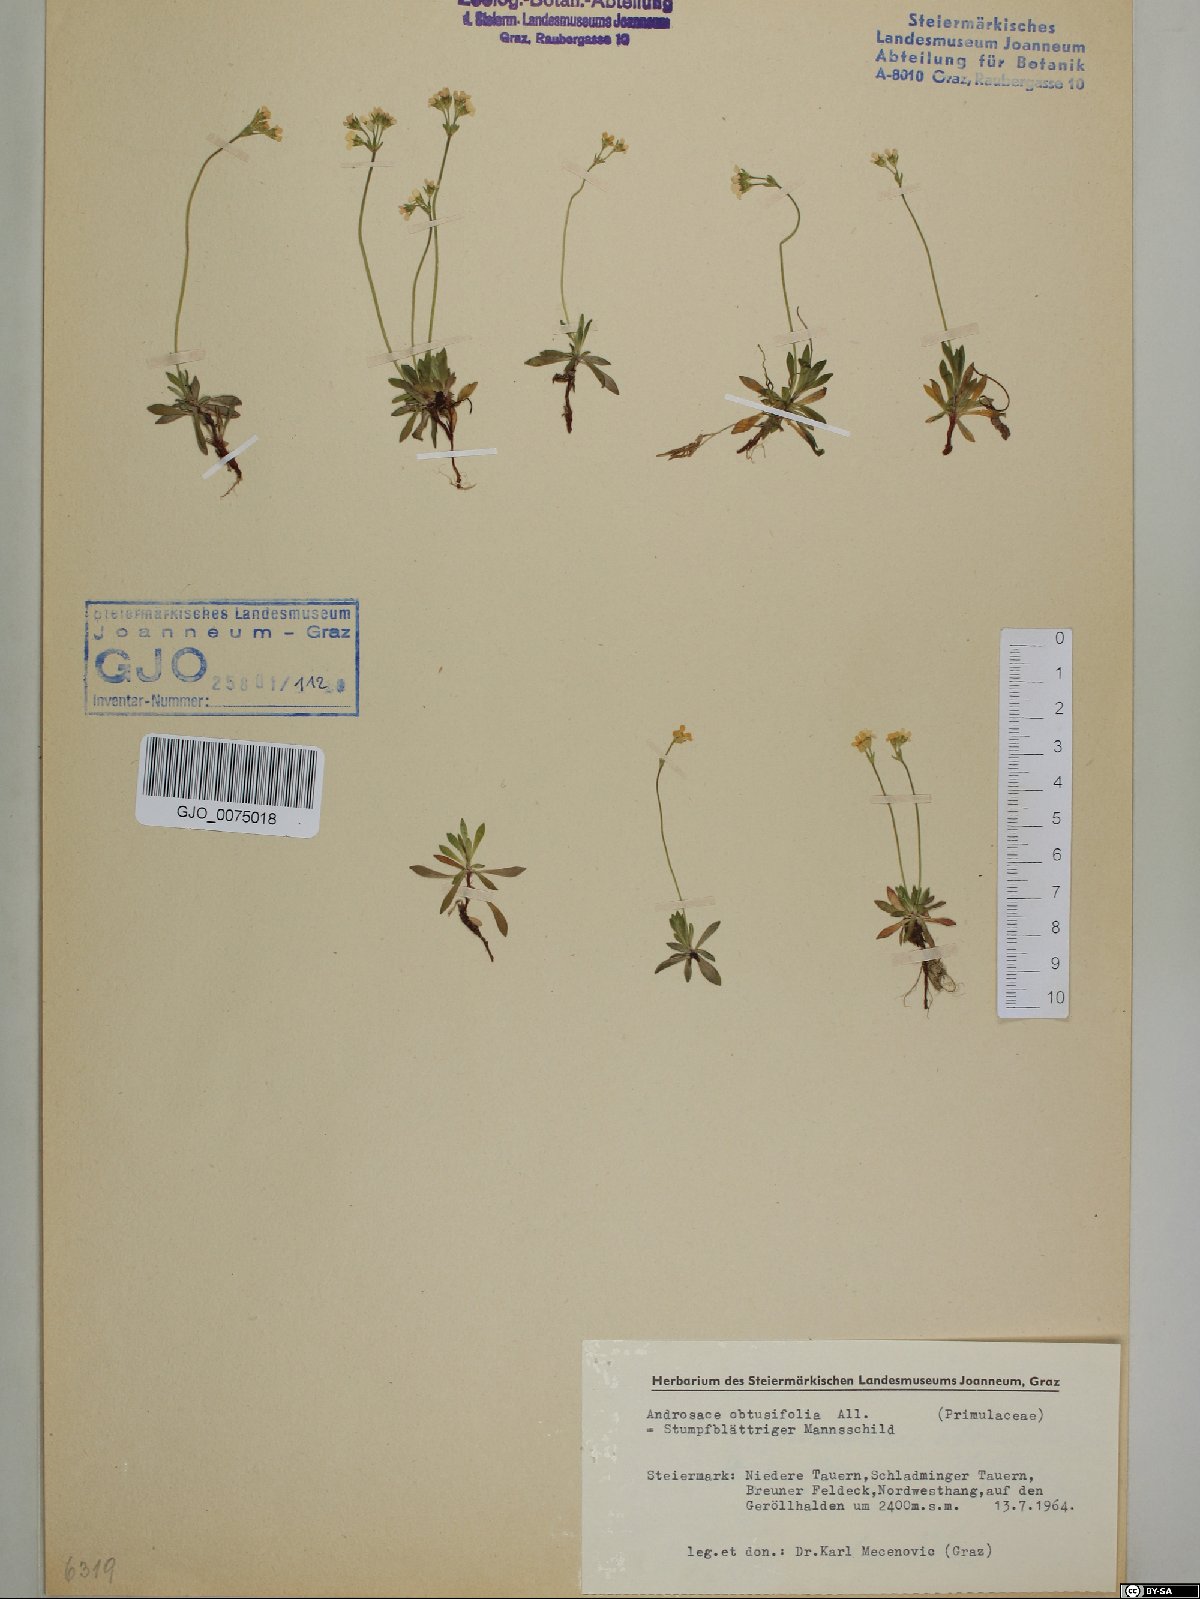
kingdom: Plantae
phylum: Tracheophyta
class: Magnoliopsida
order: Ericales
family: Primulaceae
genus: Androsace
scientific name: Androsace obtusifolia
